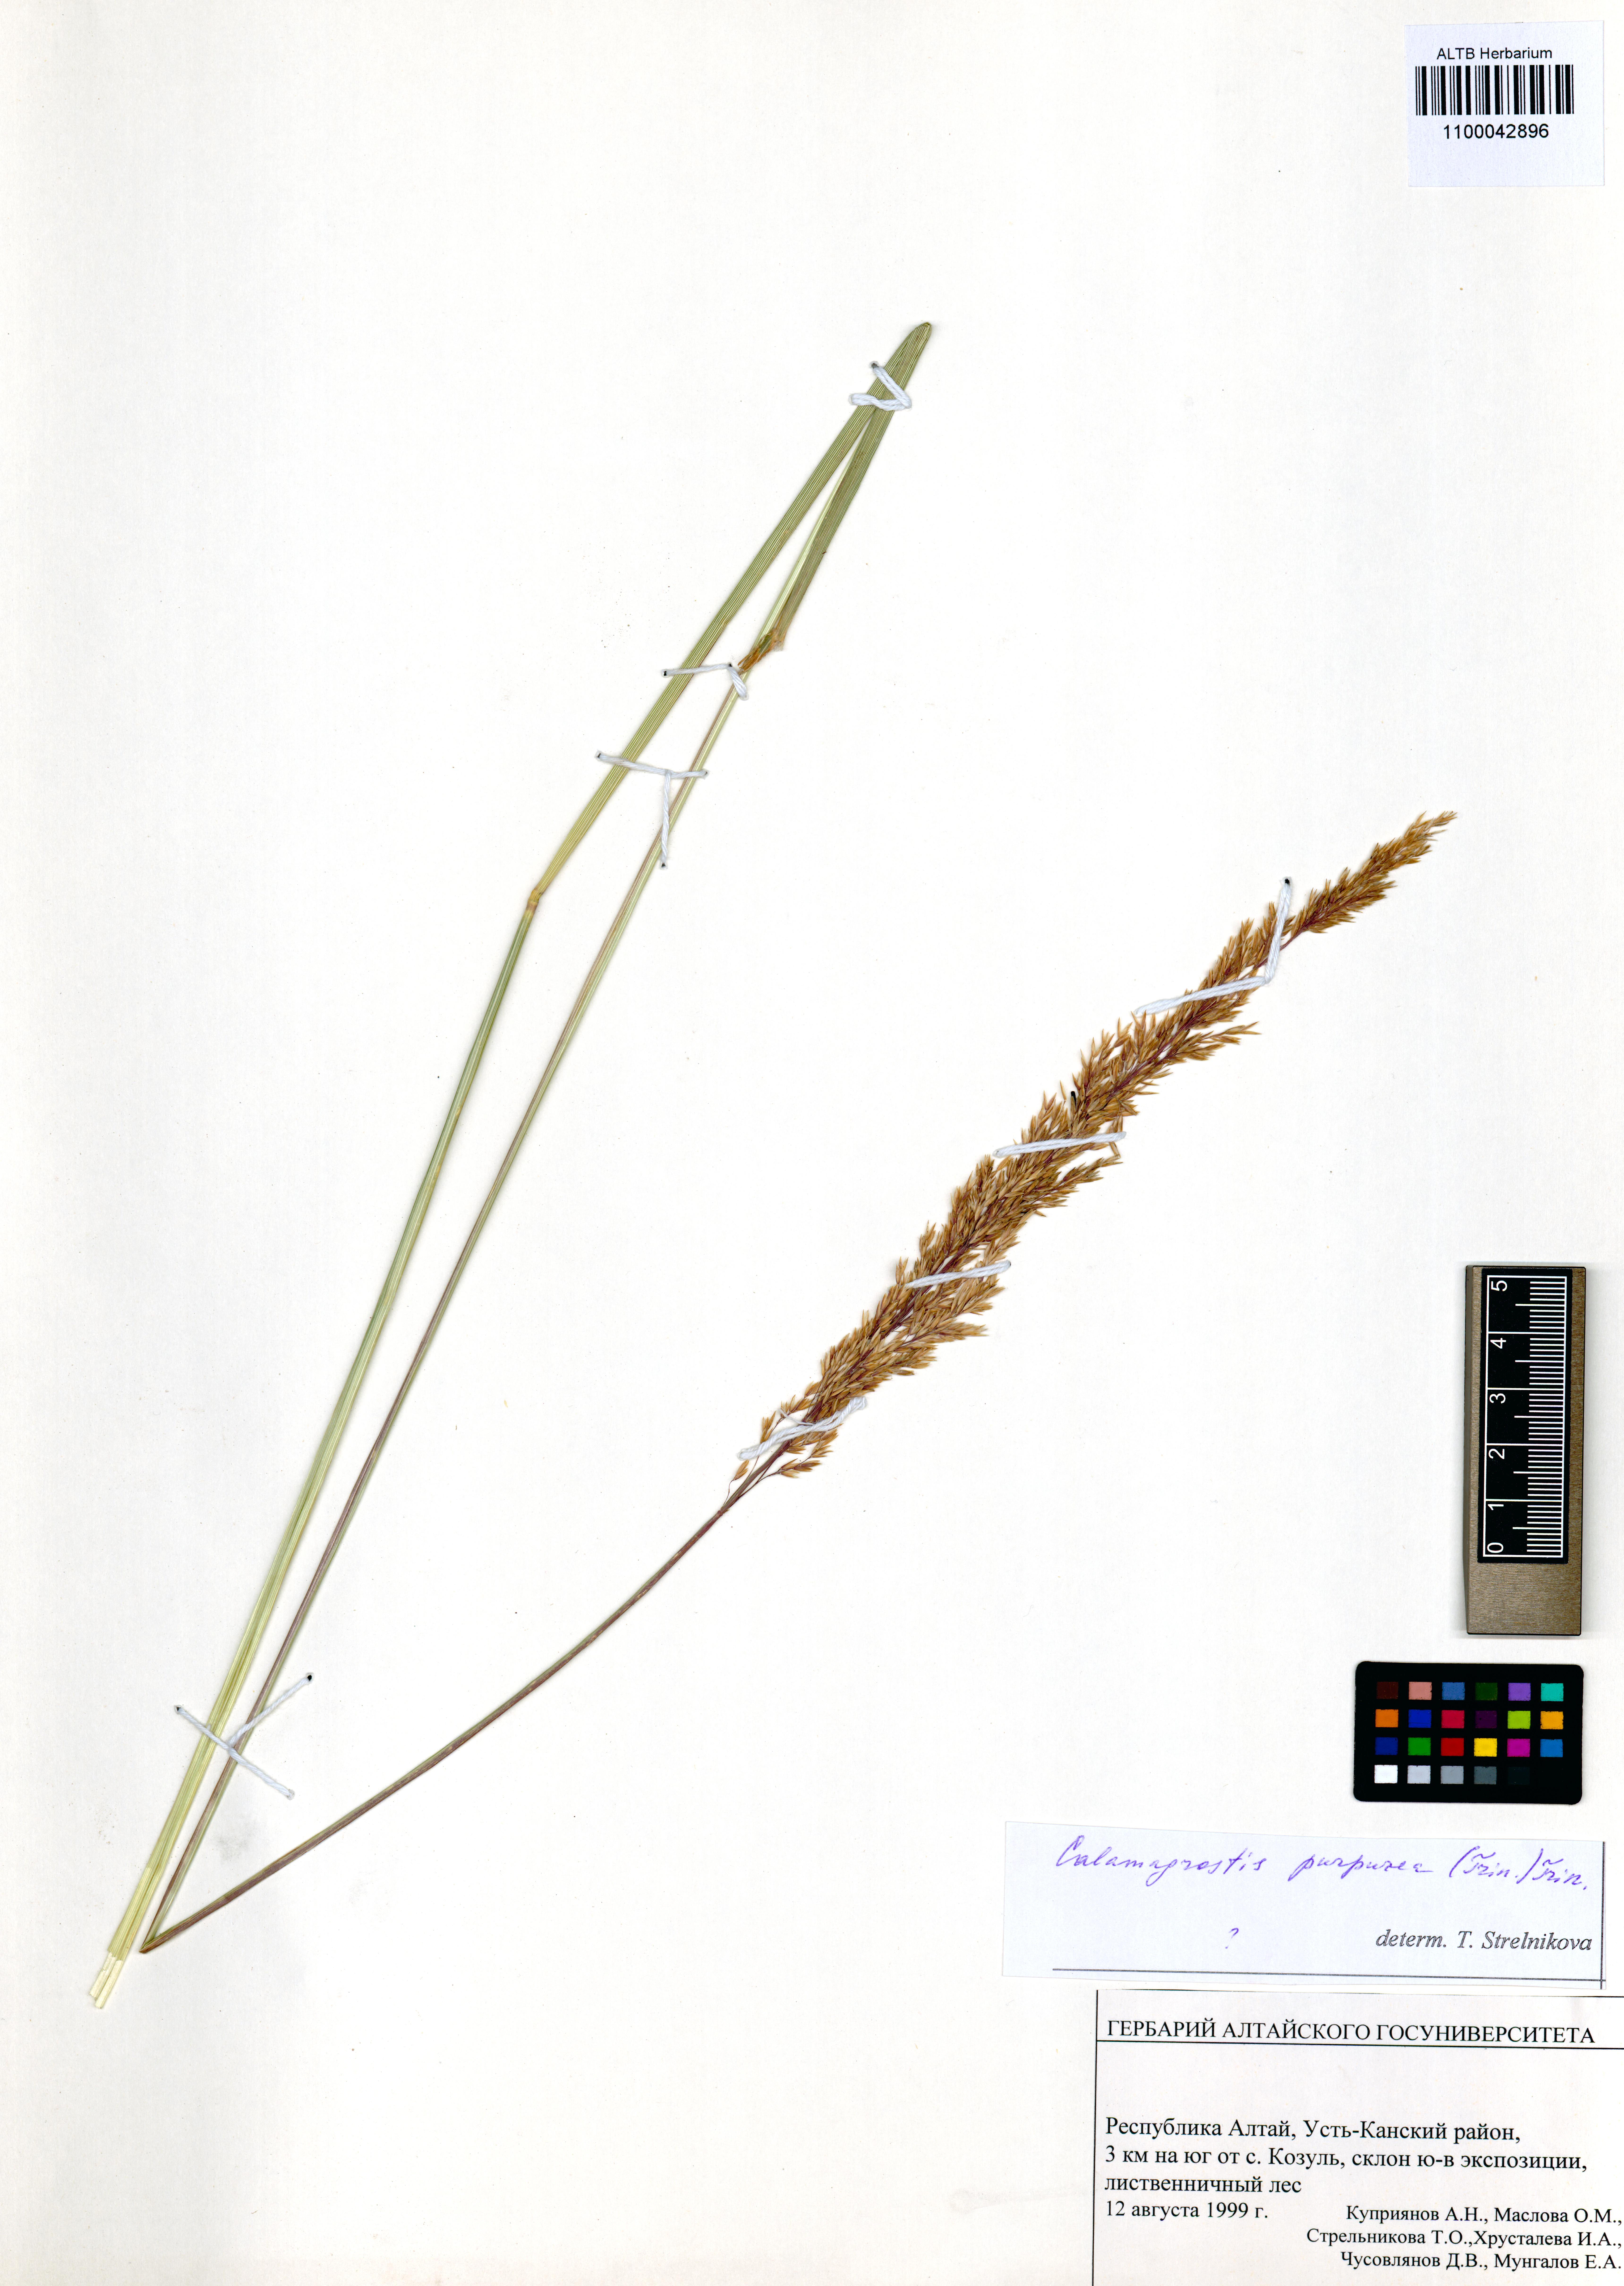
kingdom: Plantae
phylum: Tracheophyta
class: Liliopsida
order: Poales
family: Poaceae
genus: Calamagrostis
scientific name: Calamagrostis purpurea
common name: Scandinavian small-reed
